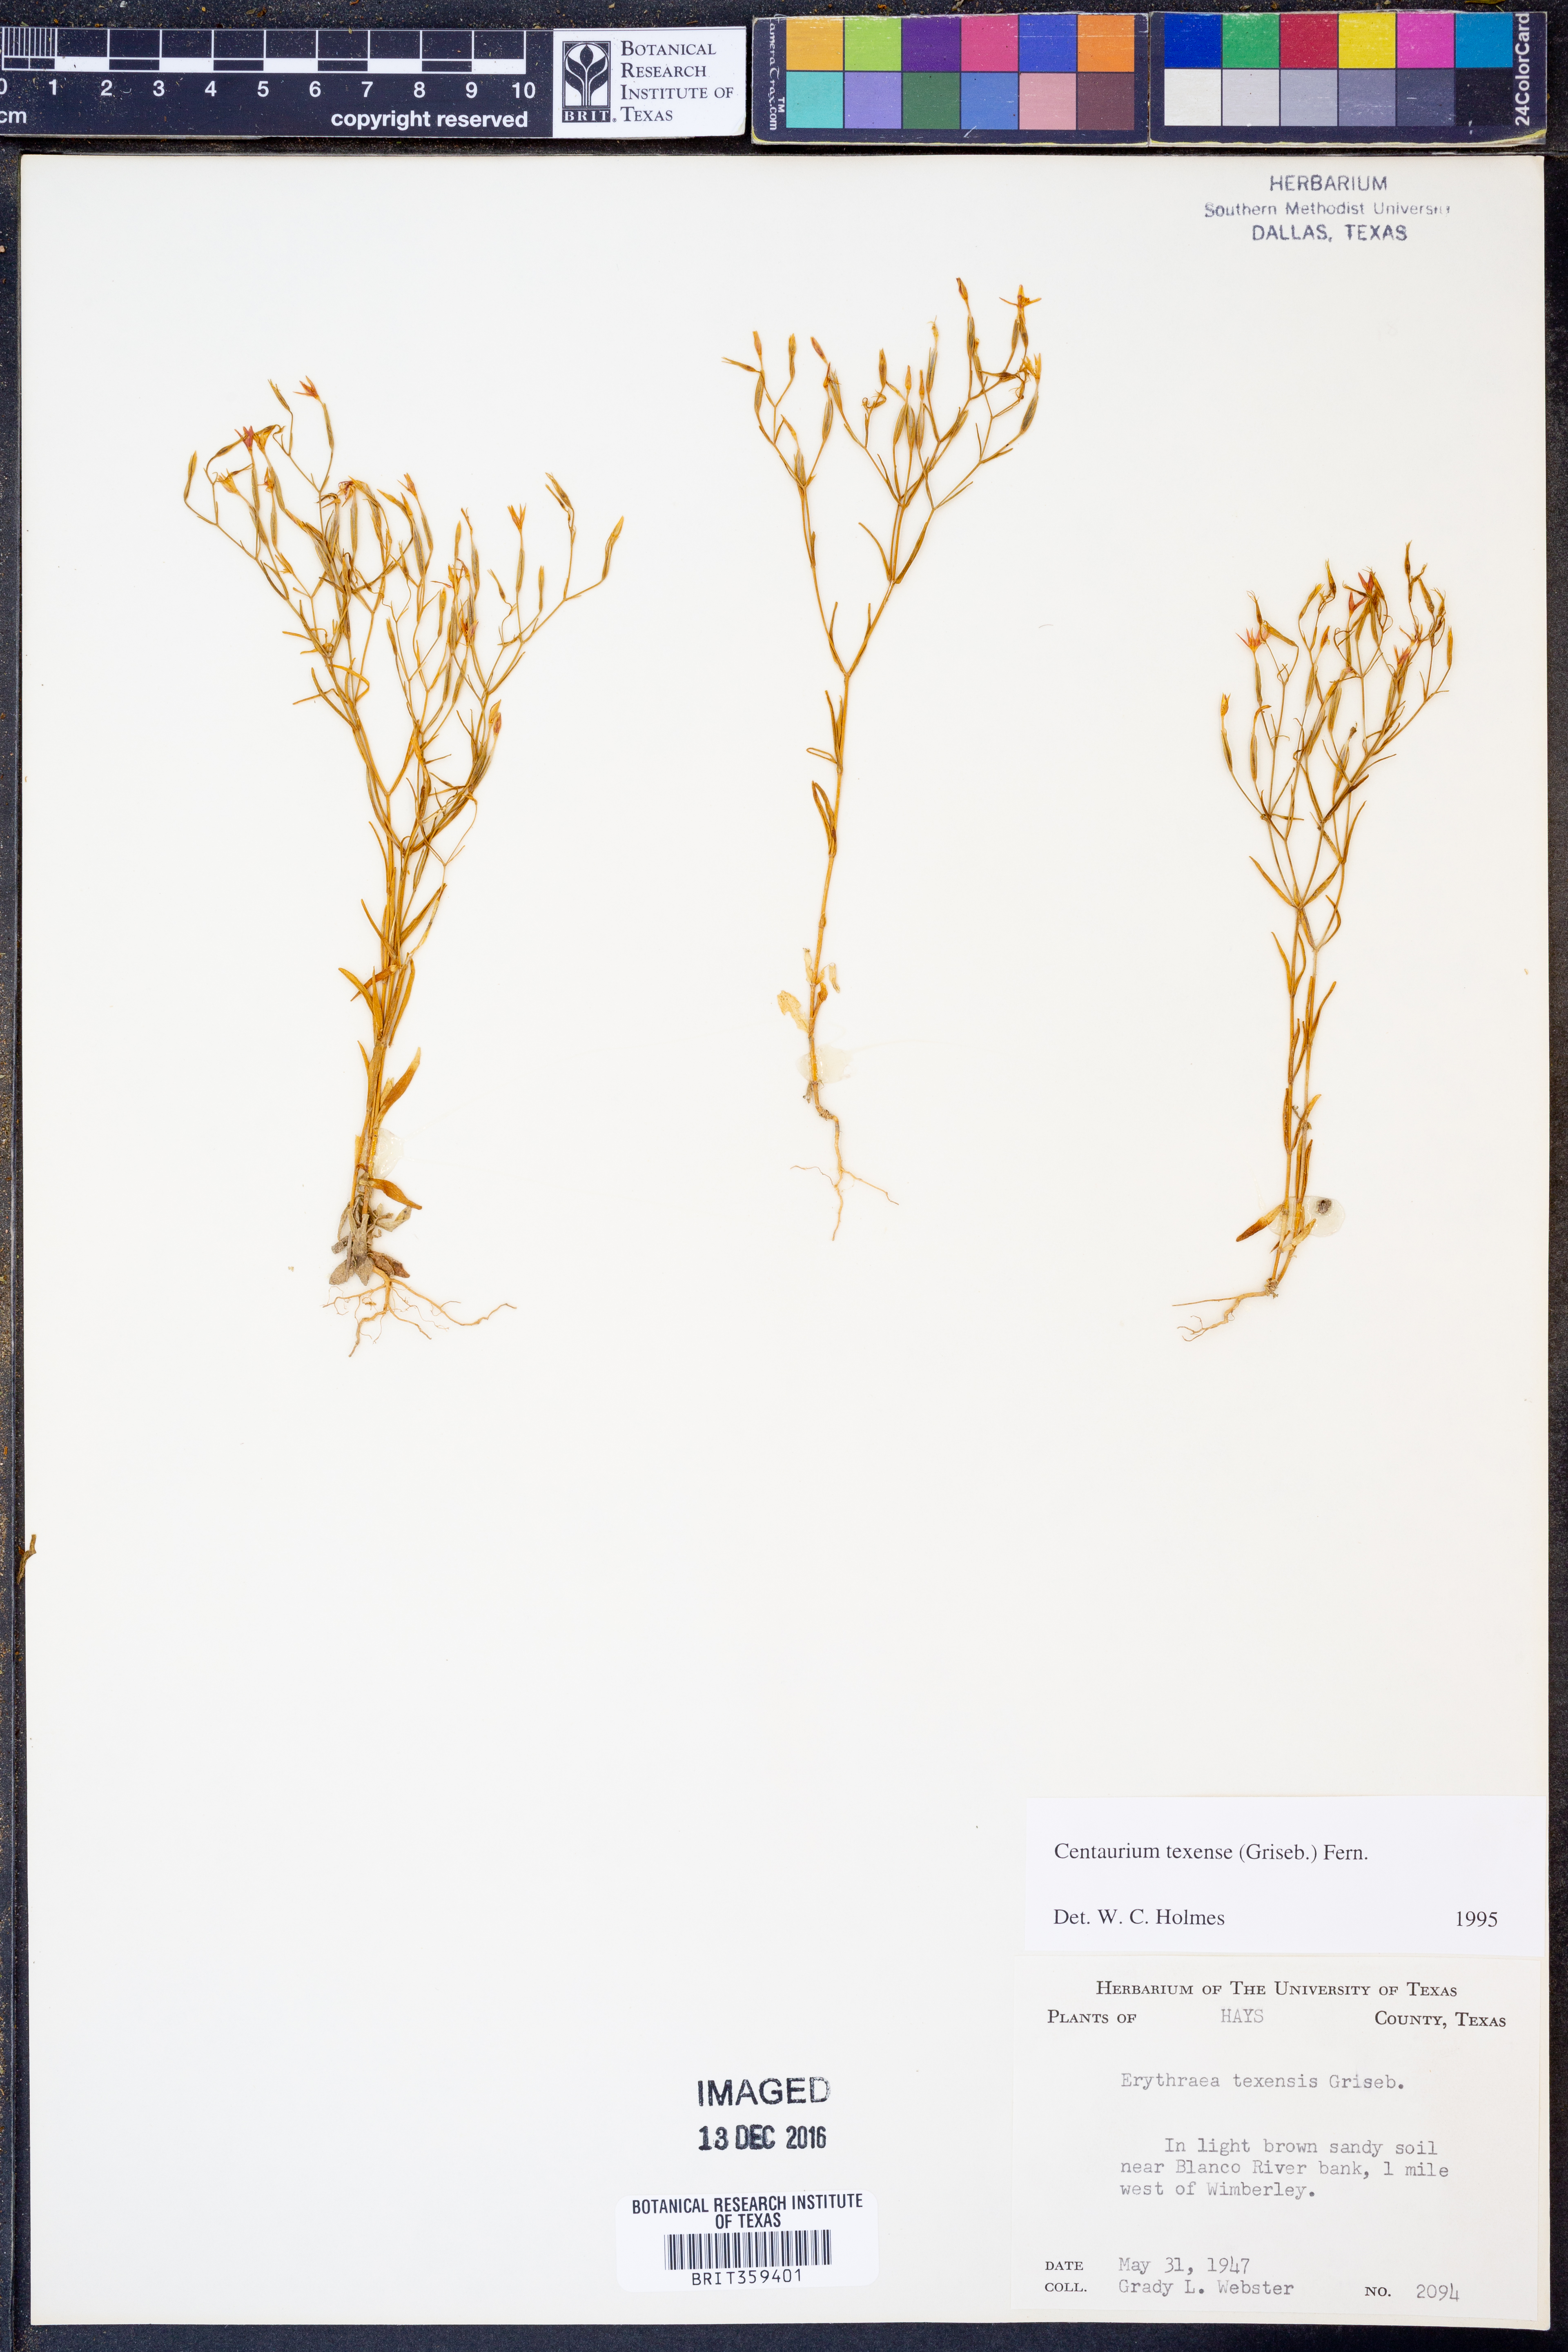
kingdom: Plantae
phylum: Tracheophyta
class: Magnoliopsida
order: Gentianales
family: Gentianaceae
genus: Zeltnera
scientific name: Zeltnera texensis
